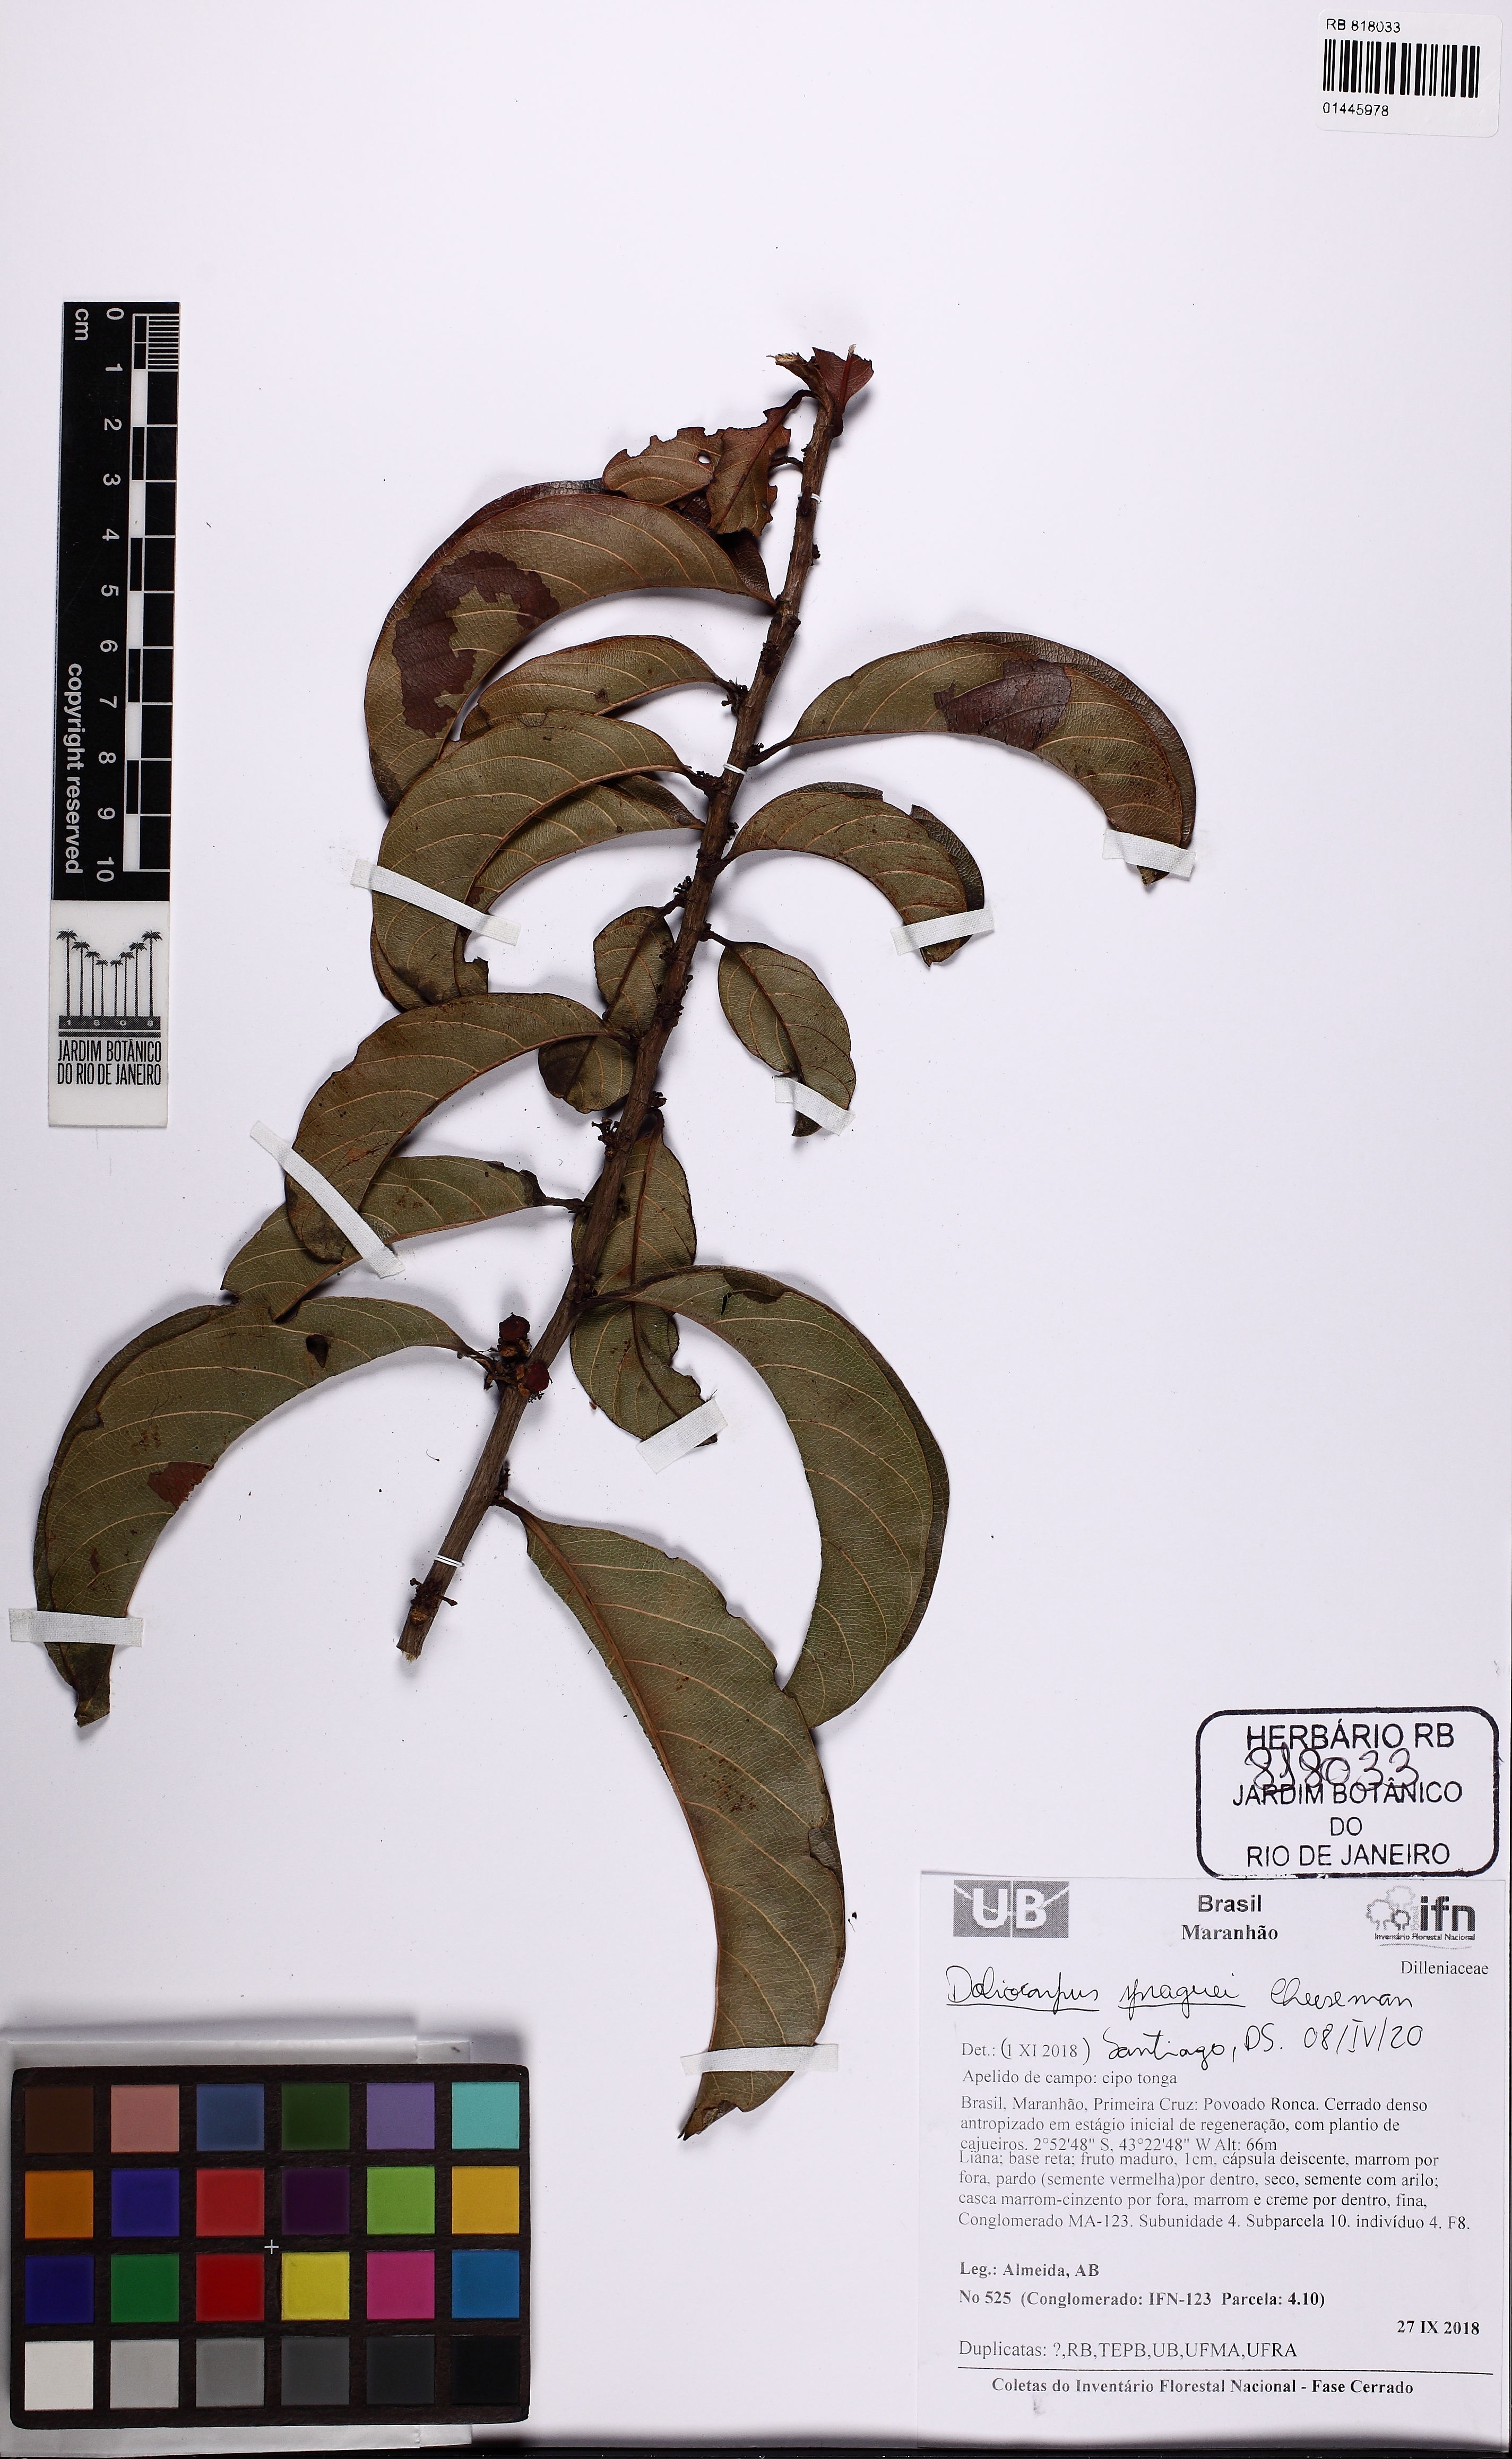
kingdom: Plantae
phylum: Tracheophyta
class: Magnoliopsida
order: Dilleniales
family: Dilleniaceae
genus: Doliocarpus
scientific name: Doliocarpus spraguei
